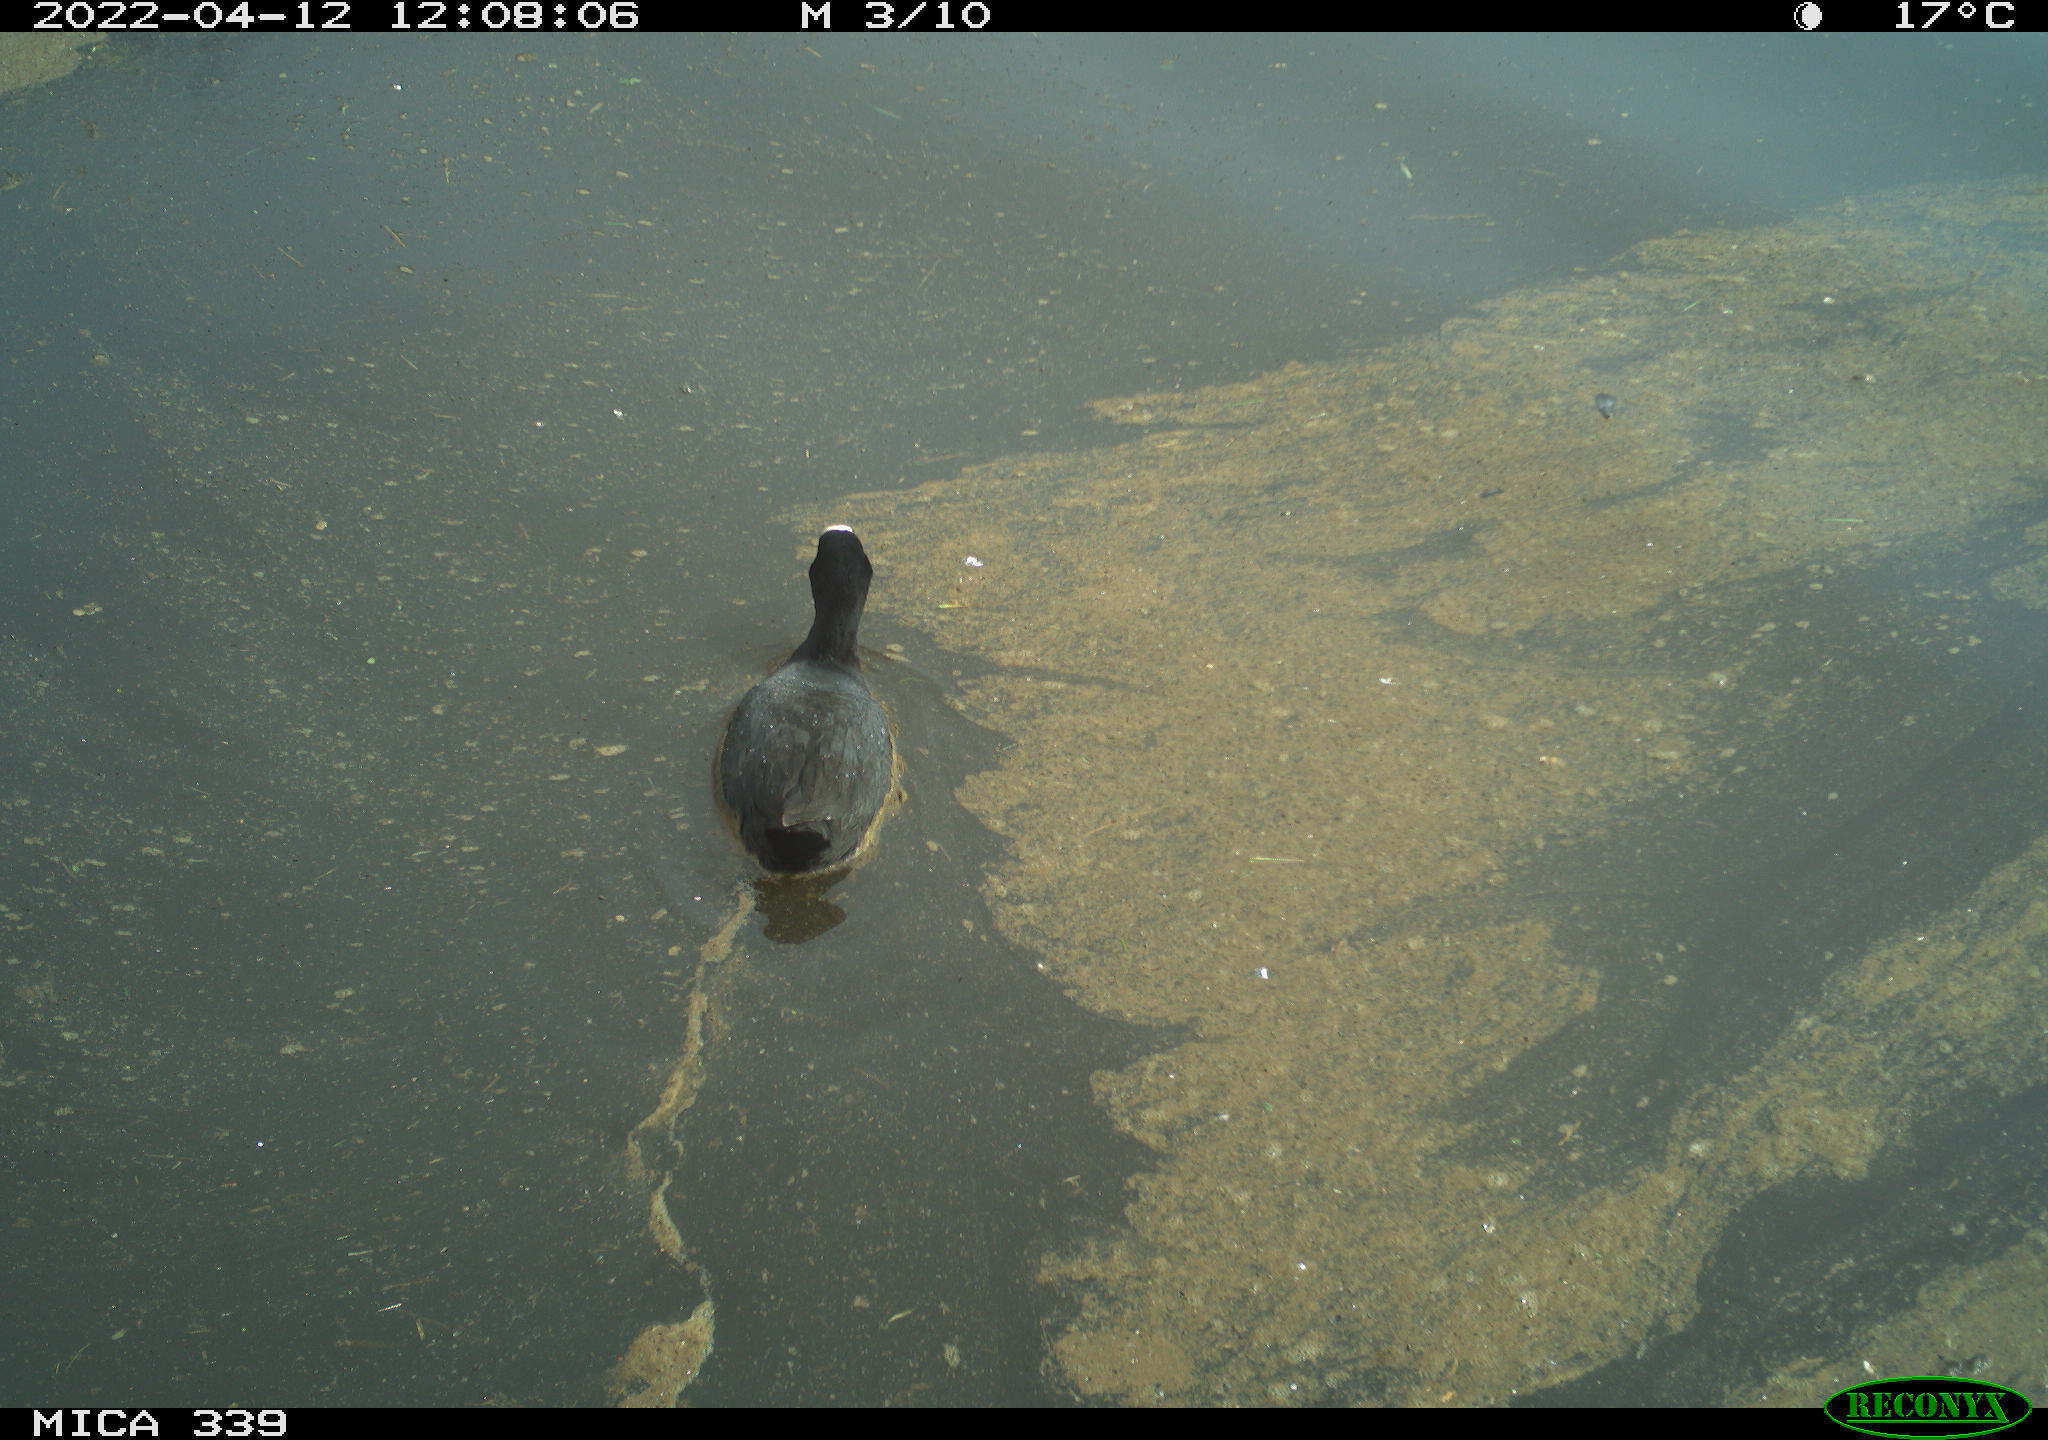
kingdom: Animalia
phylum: Chordata
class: Aves
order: Gruiformes
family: Rallidae
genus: Fulica
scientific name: Fulica atra
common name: Eurasian coot
